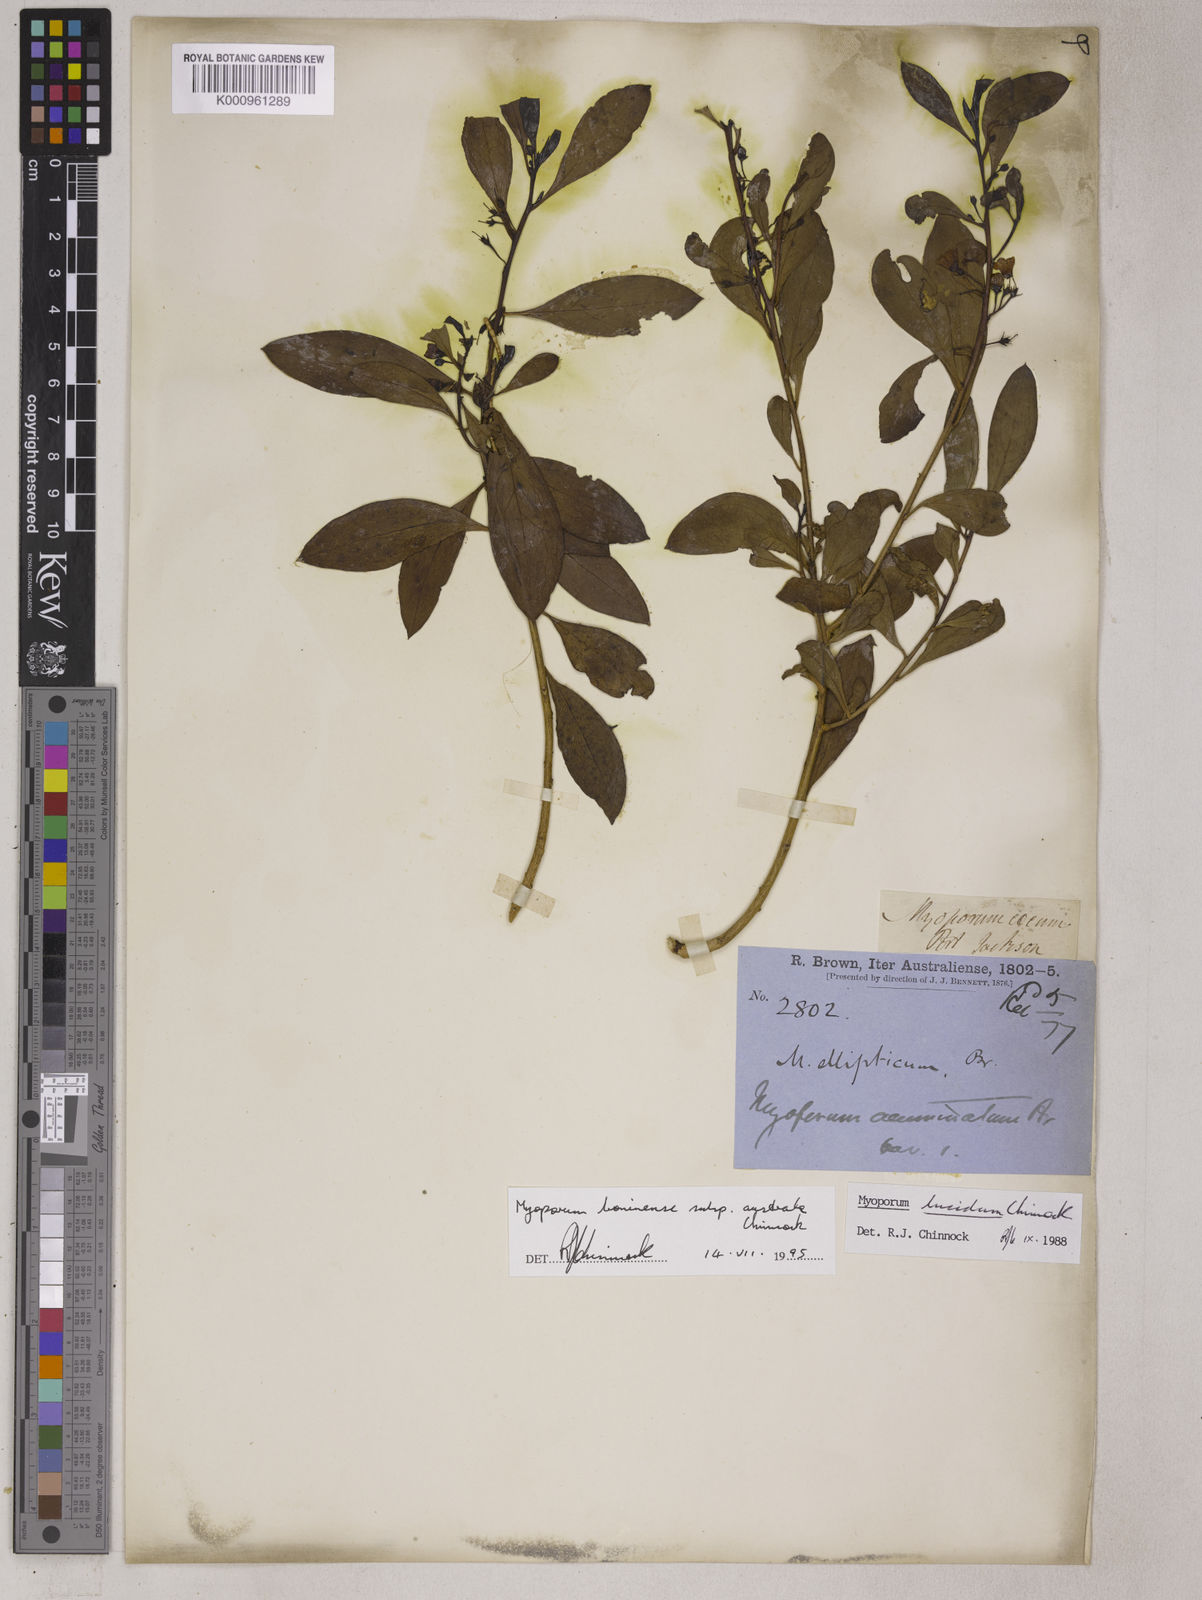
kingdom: Plantae
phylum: Tracheophyta
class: Magnoliopsida
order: Lamiales
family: Scrophulariaceae
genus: Myoporum
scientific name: Myoporum boninense
